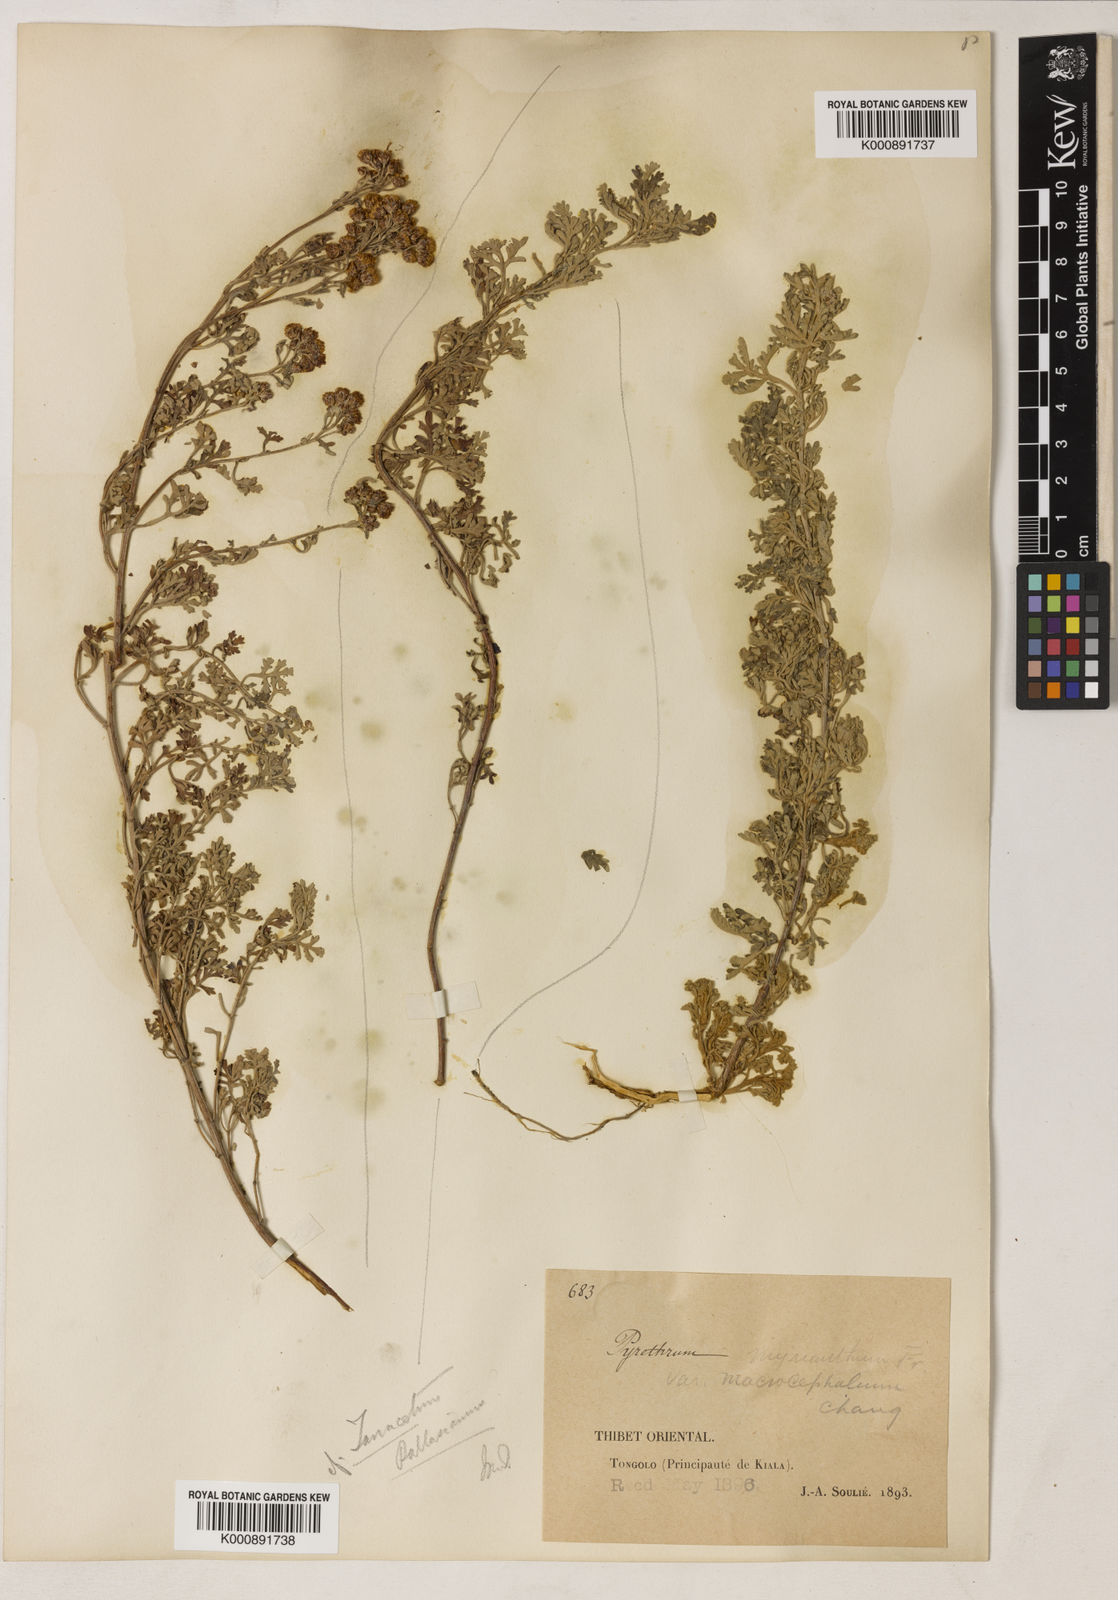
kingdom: Plantae
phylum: Tracheophyta
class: Magnoliopsida
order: Asterales
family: Asteraceae
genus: Ajania
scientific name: Ajania myriantha
